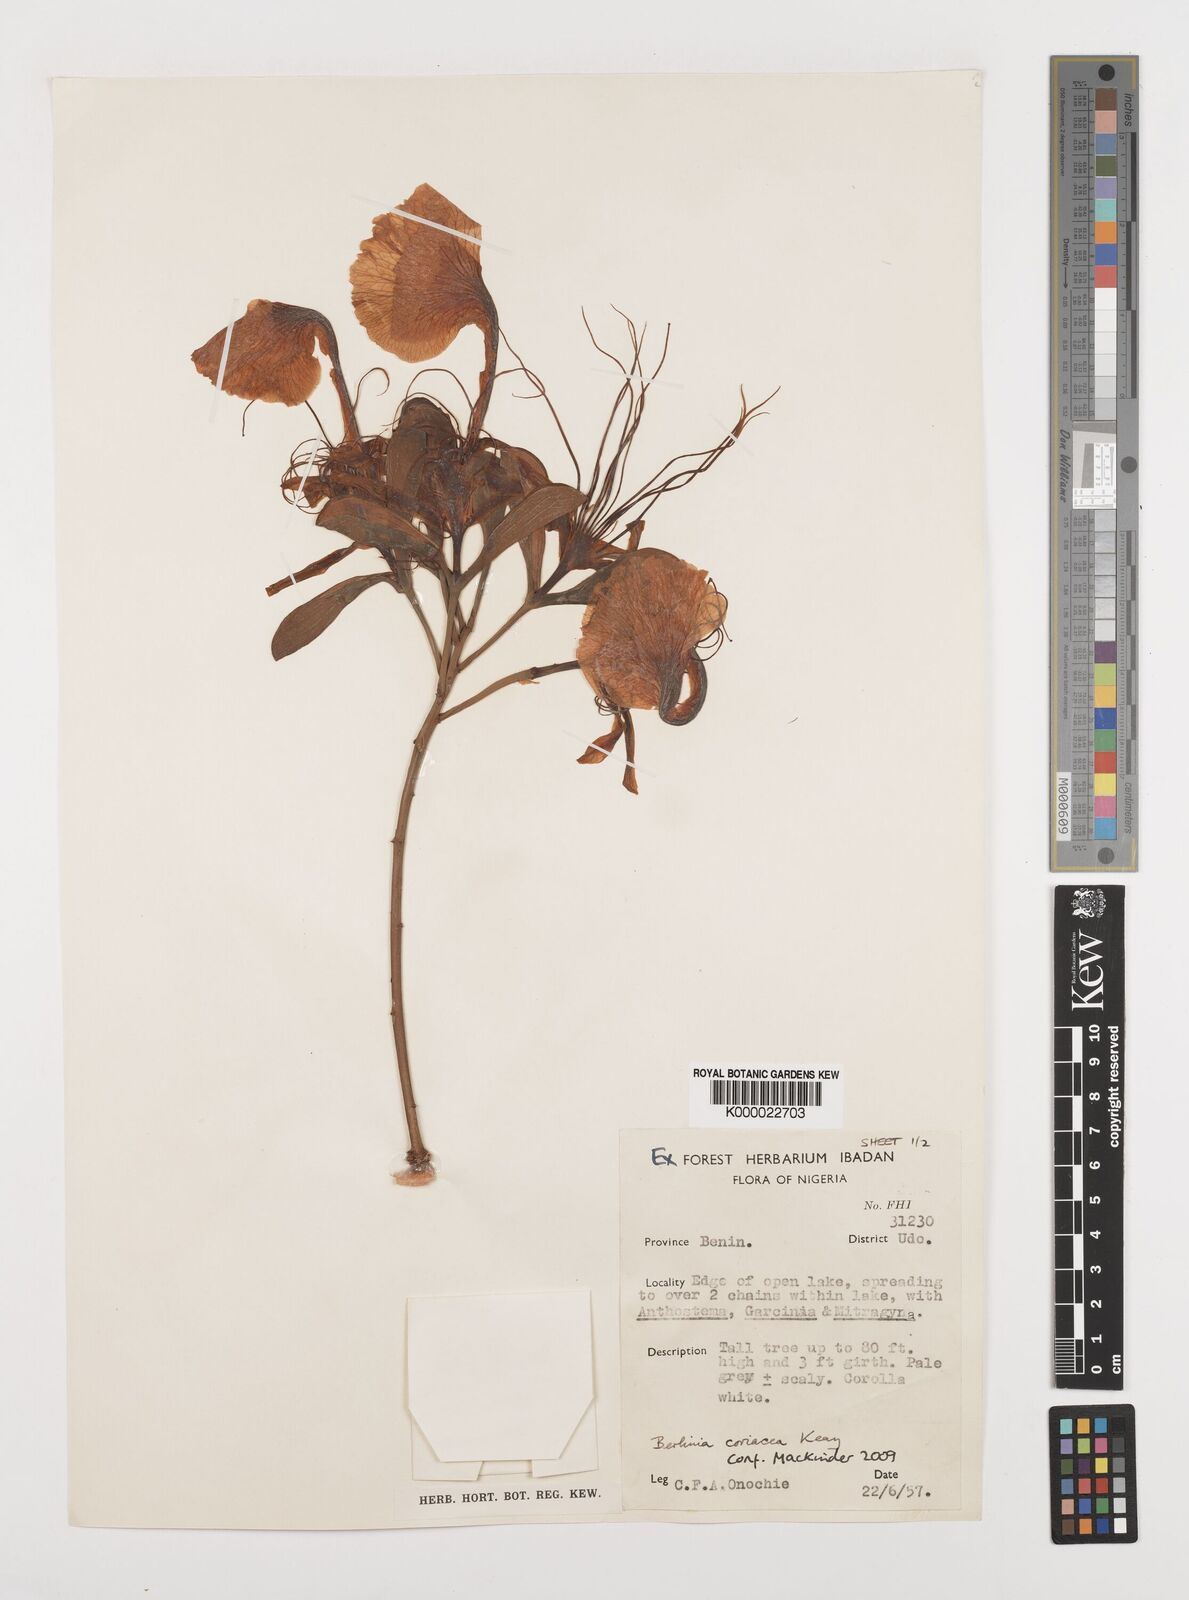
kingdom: Plantae
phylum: Tracheophyta
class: Magnoliopsida
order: Fabales
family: Fabaceae
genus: Berlinia
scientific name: Berlinia coriacea
